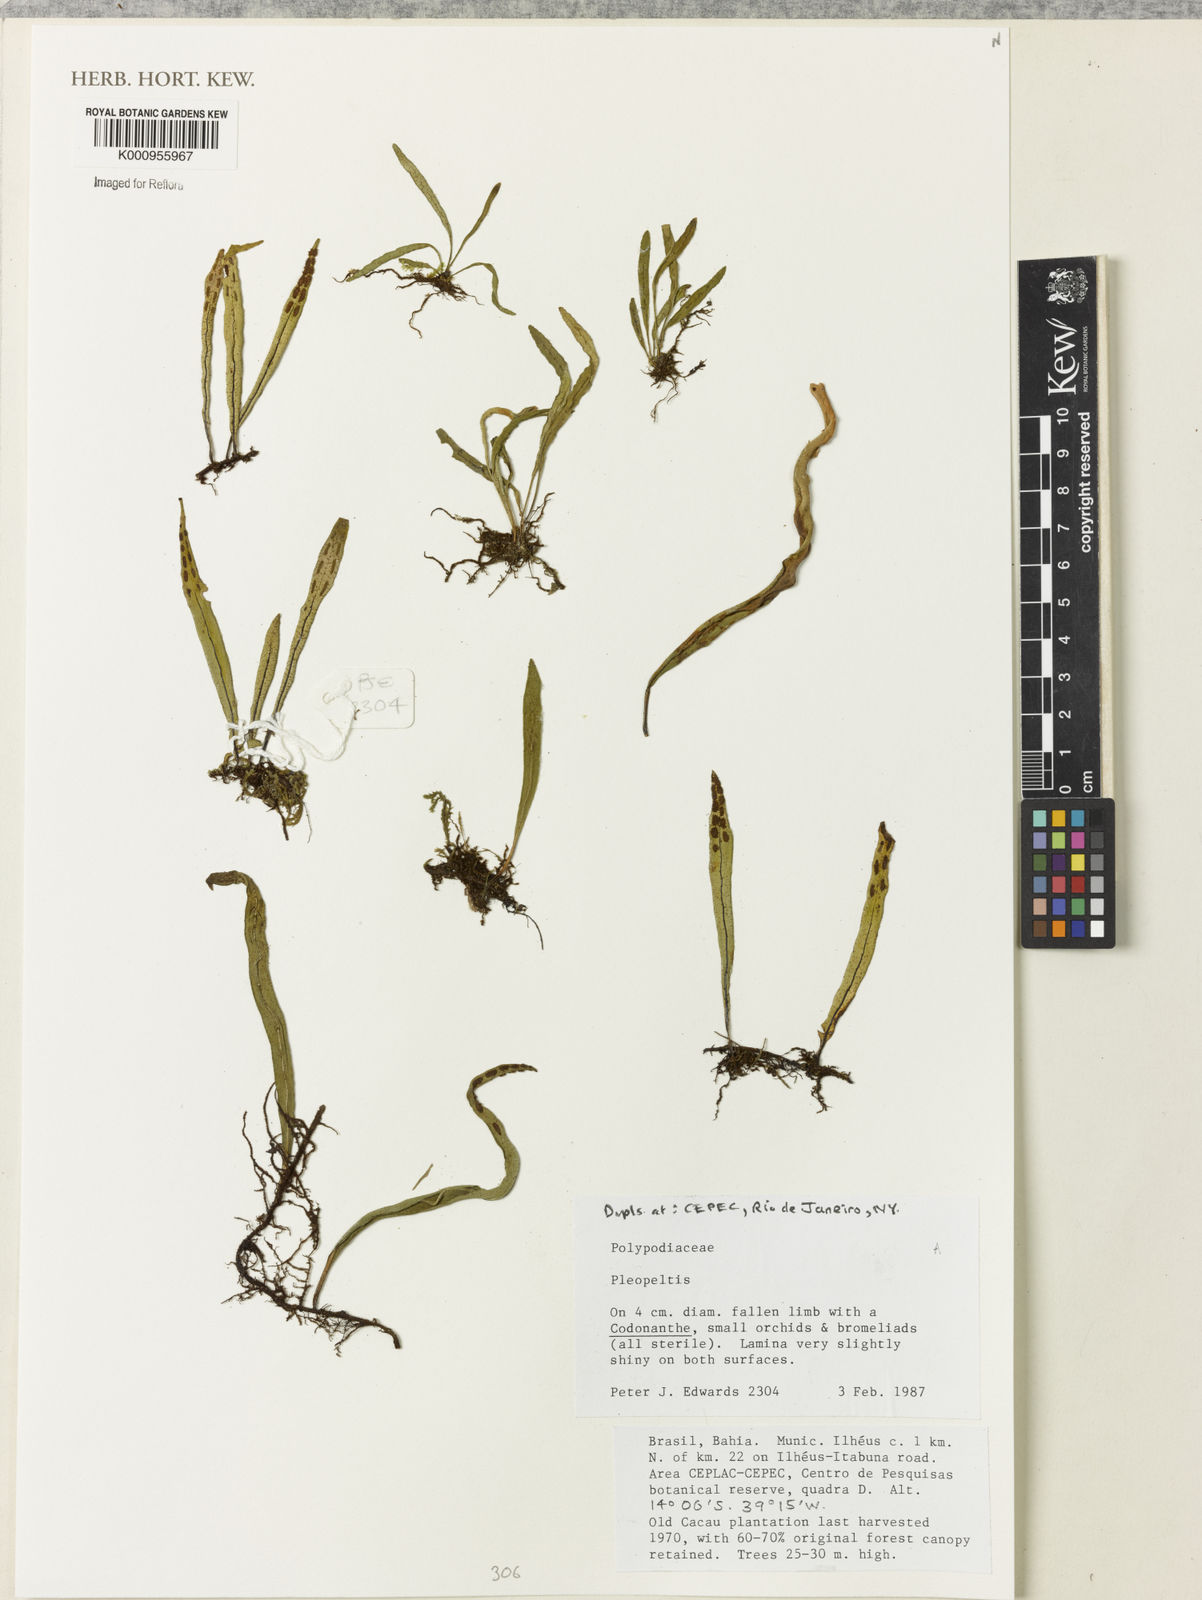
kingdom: Plantae
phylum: Tracheophyta
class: Polypodiopsida
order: Polypodiales
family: Polypodiaceae
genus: Pleopeltis
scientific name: Pleopeltis
